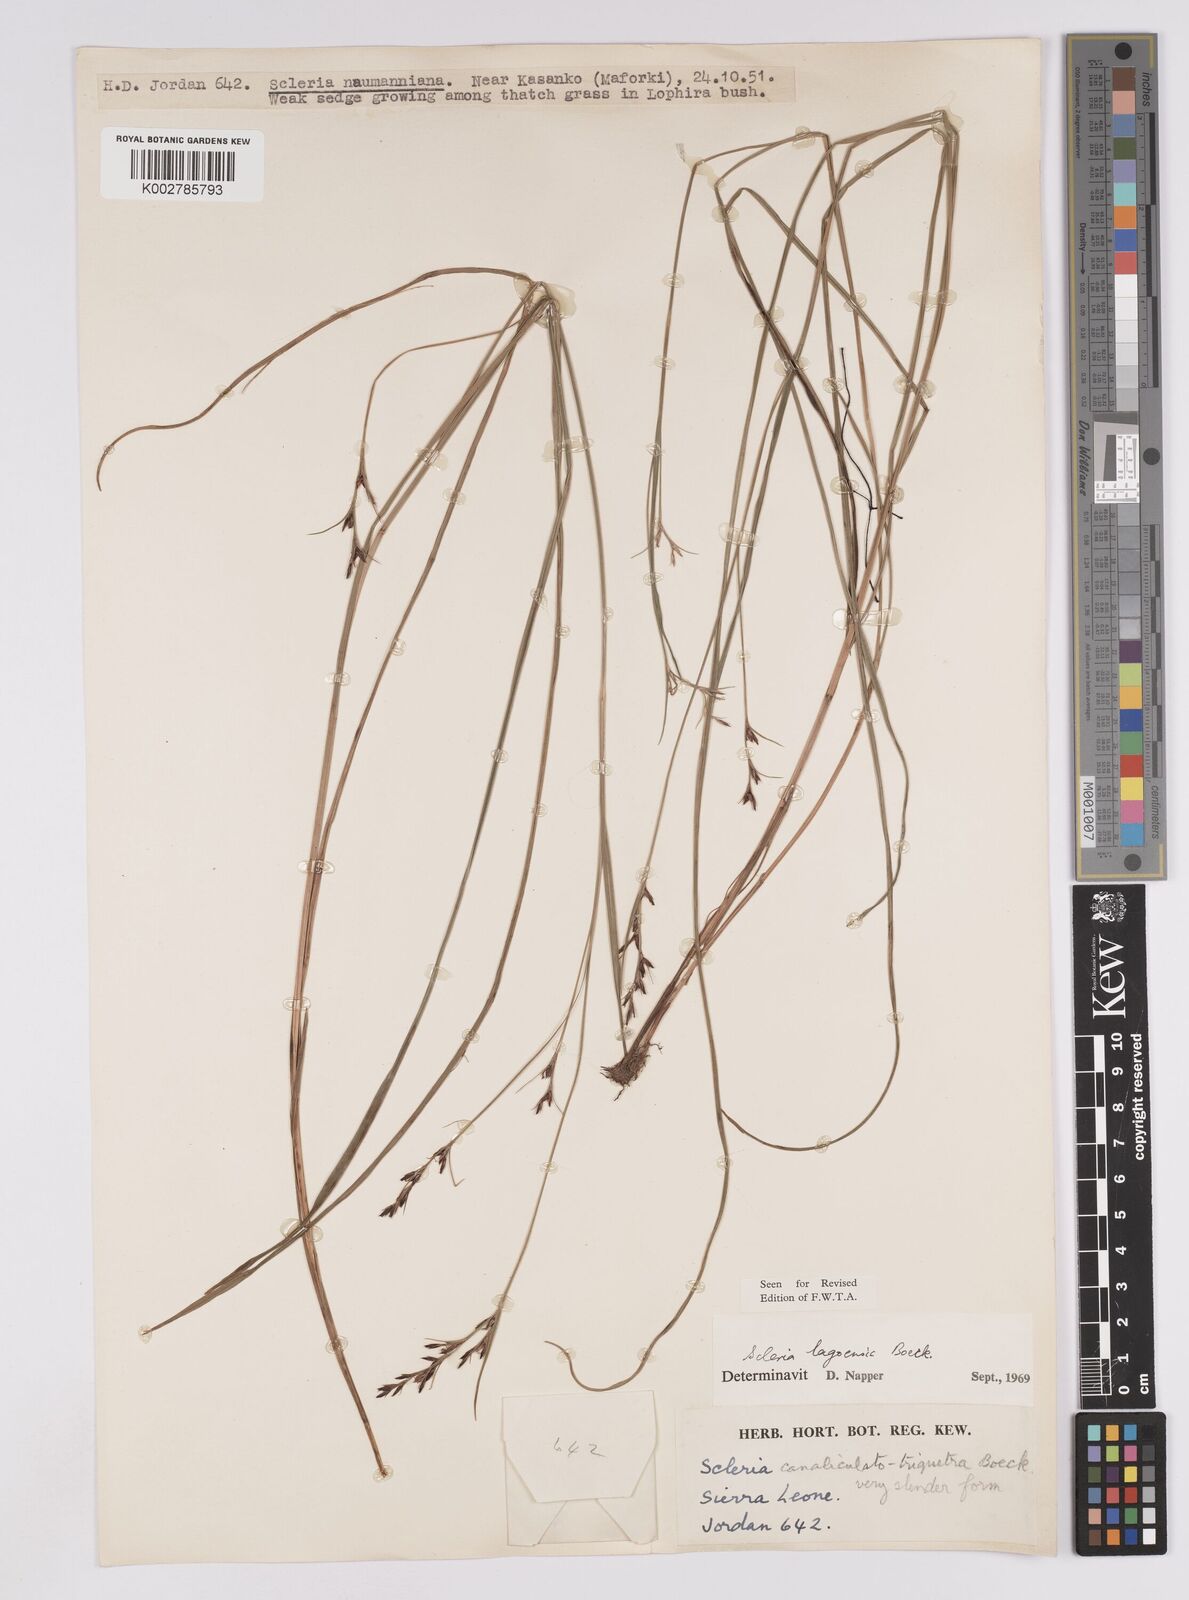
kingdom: Plantae
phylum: Tracheophyta
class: Liliopsida
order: Poales
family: Cyperaceae
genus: Scleria
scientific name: Scleria lagoensis
